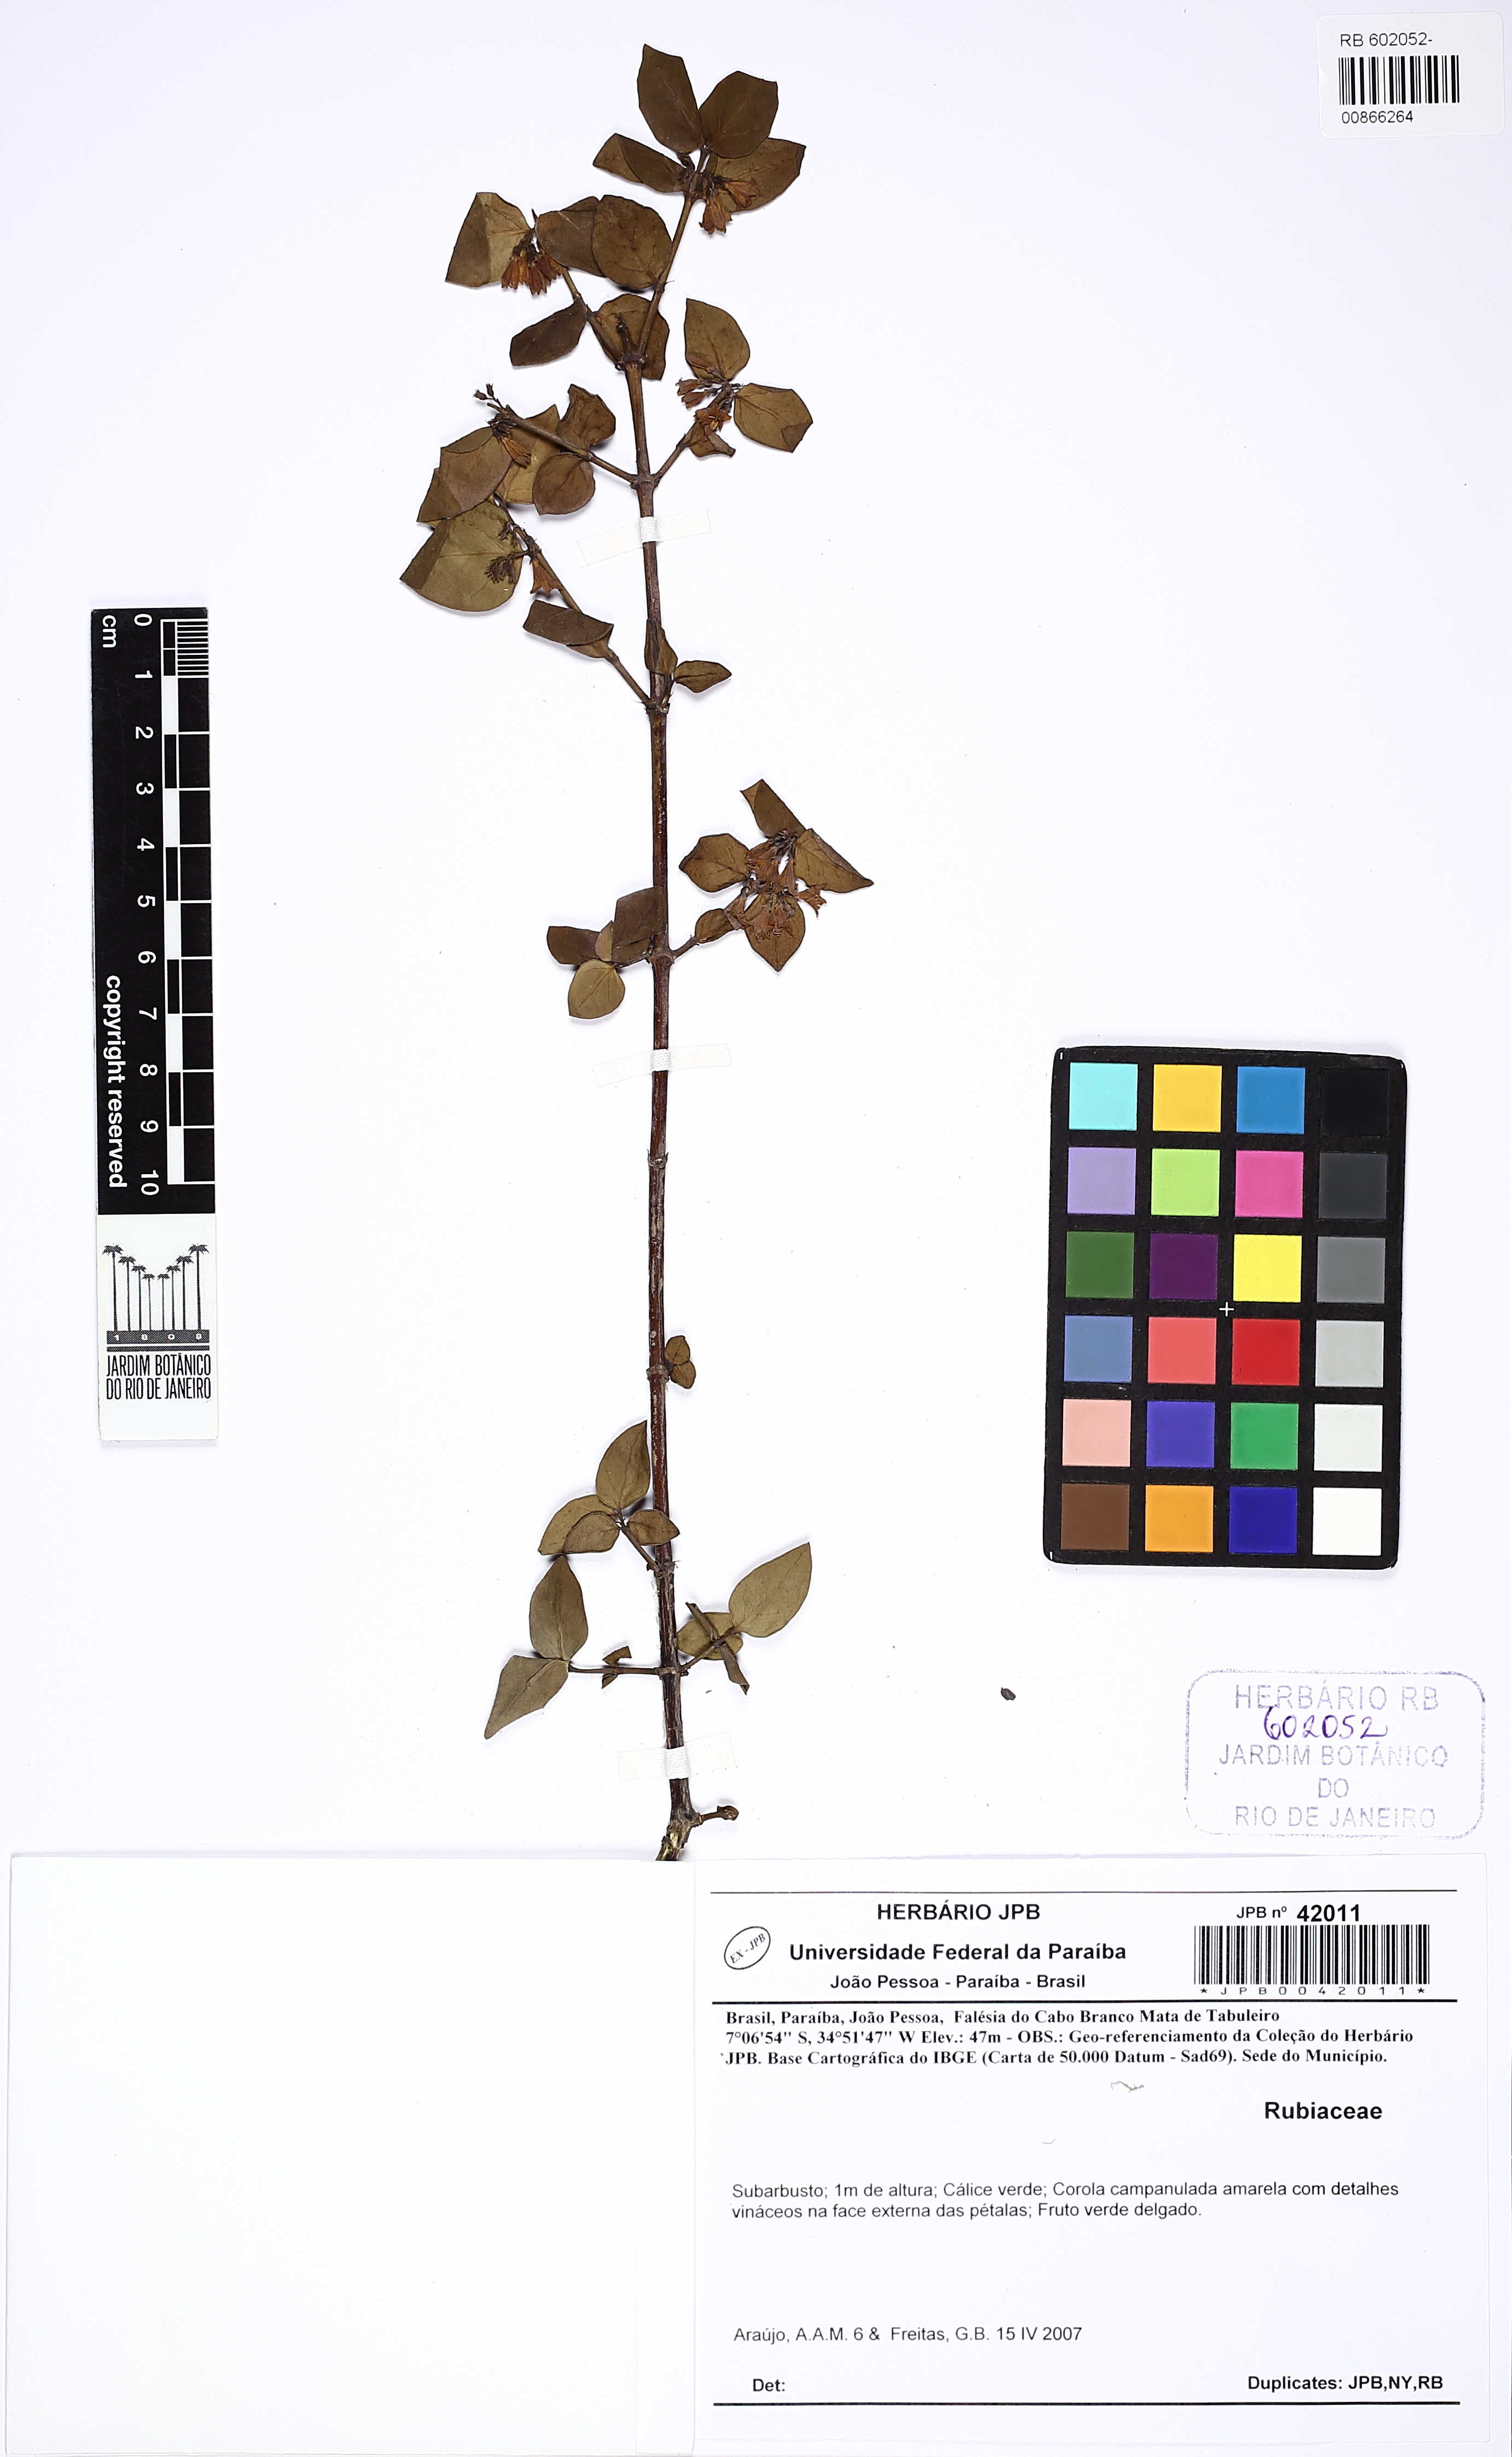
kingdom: Plantae
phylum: Tracheophyta
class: Magnoliopsida
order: Gentianales
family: Rubiaceae
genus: Chiococca
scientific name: Chiococca alba
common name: Snowberry
